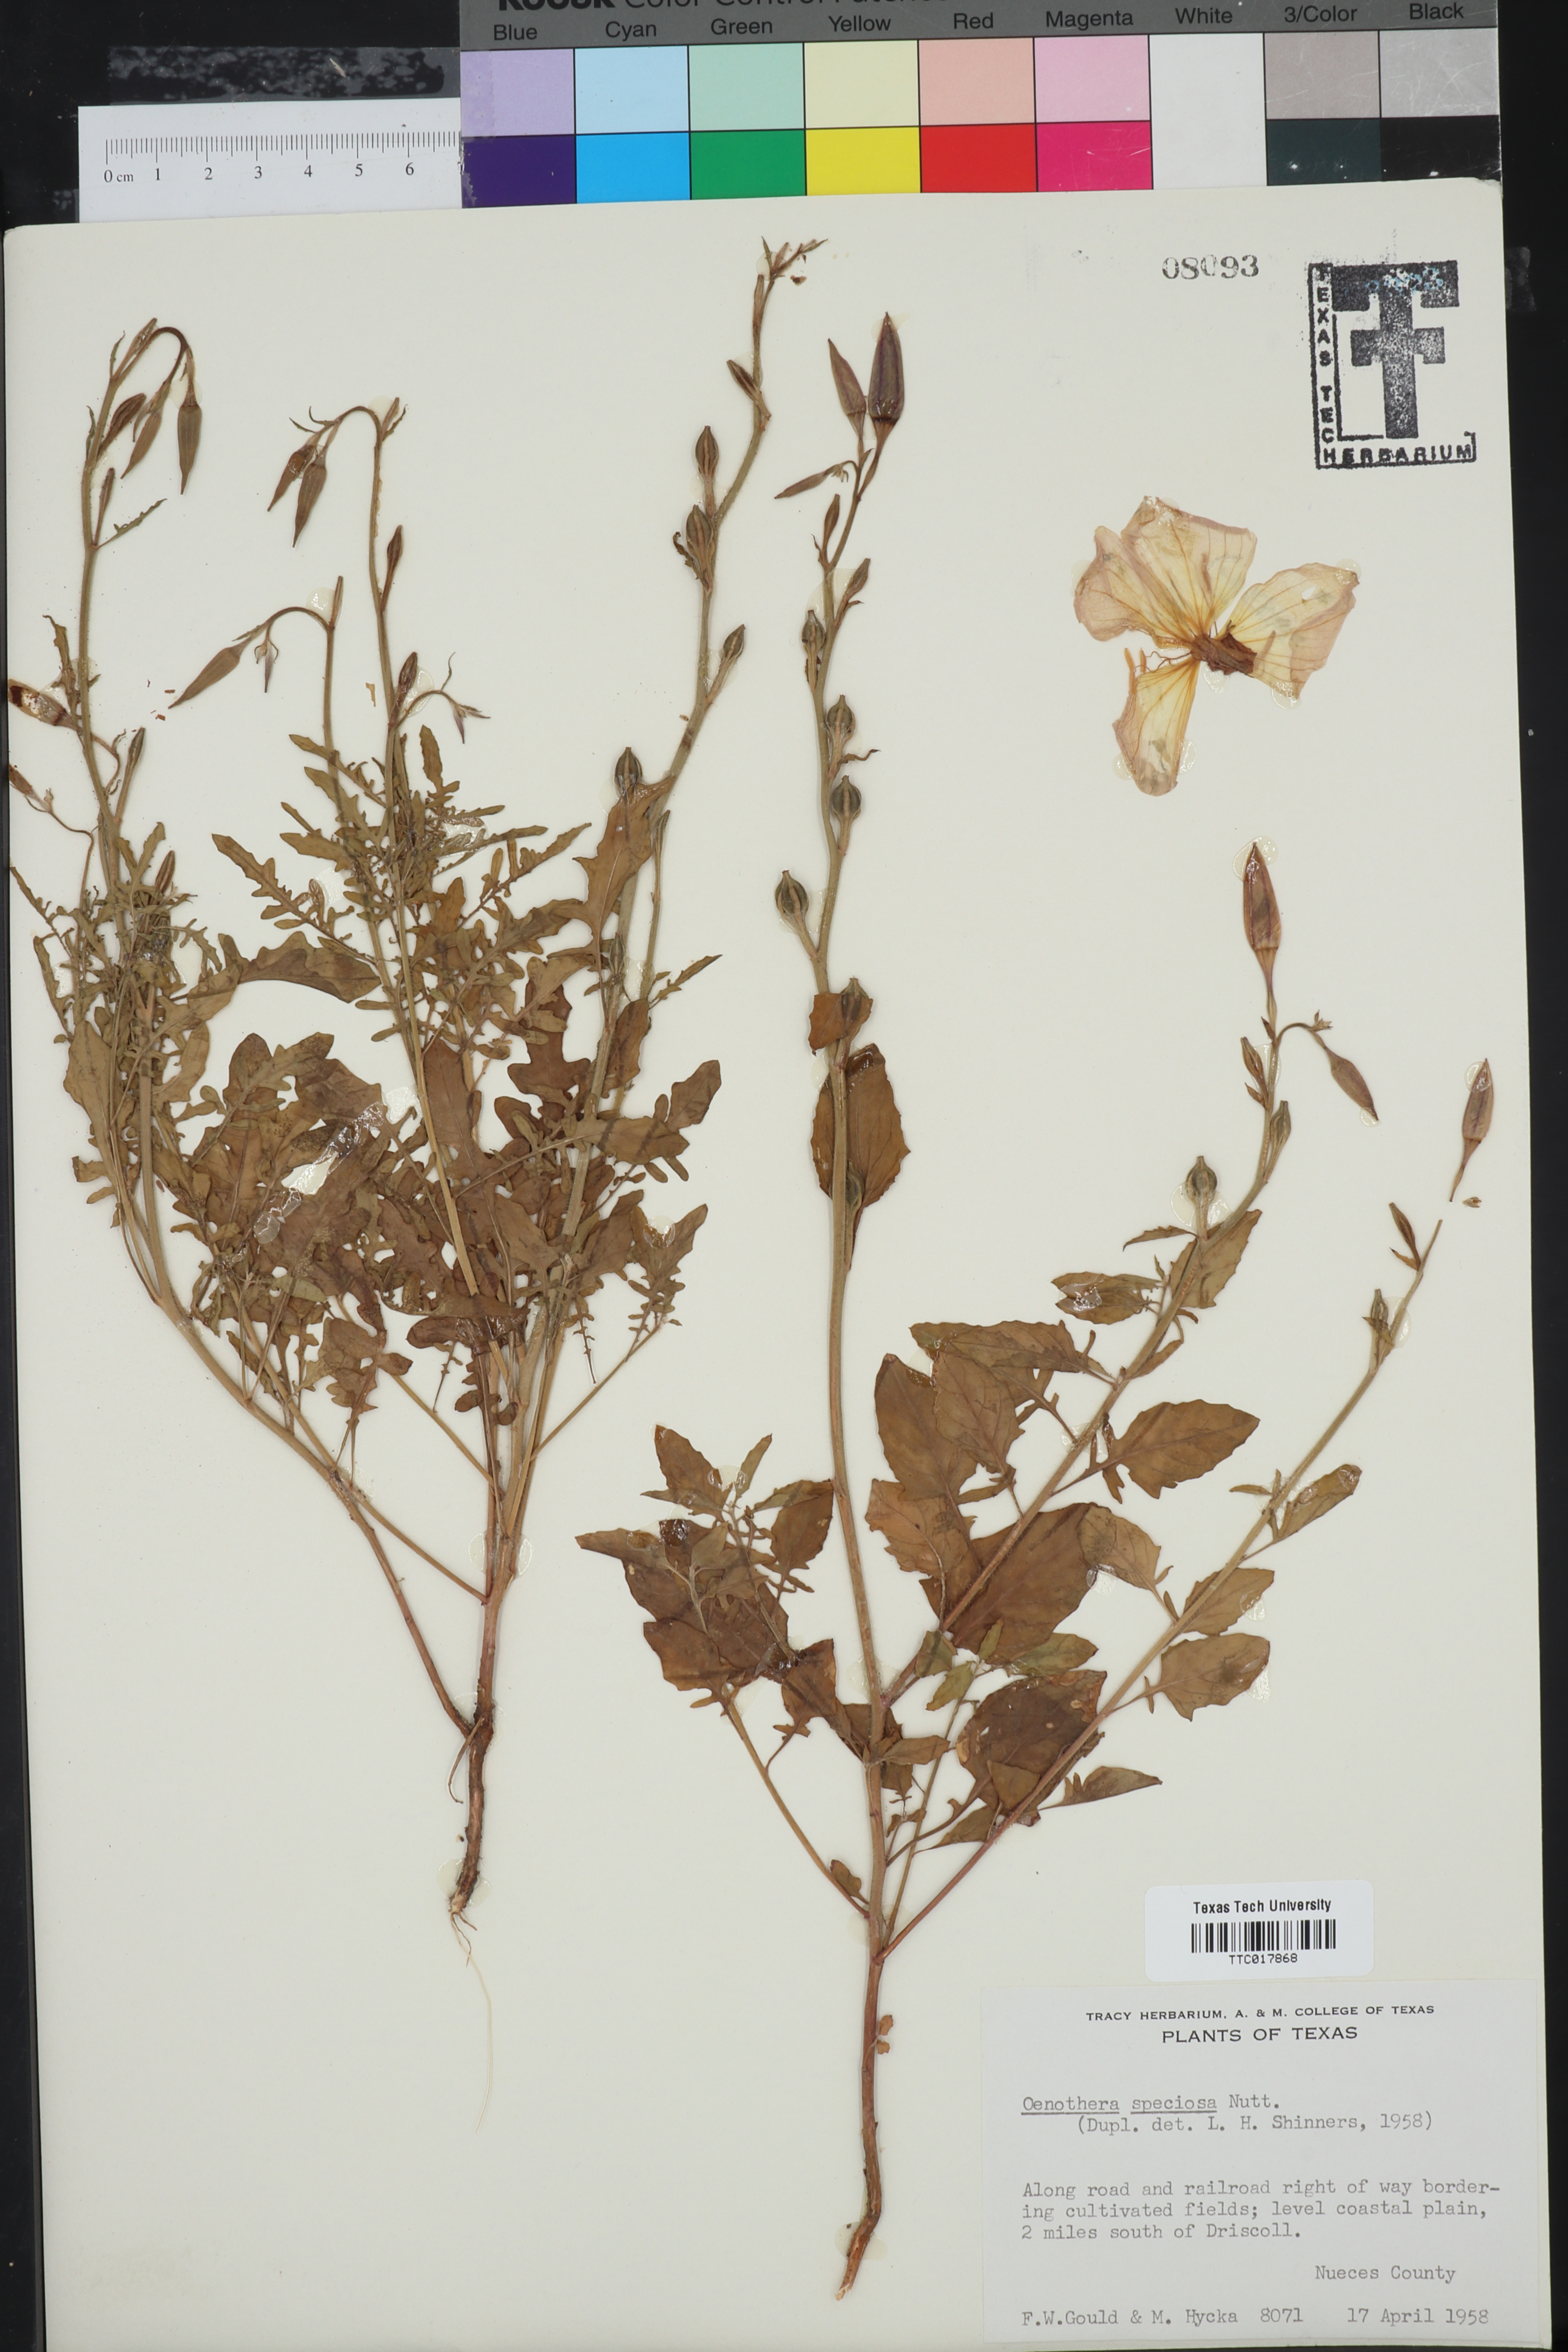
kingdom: Plantae
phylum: Tracheophyta
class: Magnoliopsida
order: Myrtales
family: Onagraceae
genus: Oenothera
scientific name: Oenothera speciosa
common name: White evening-primrose
